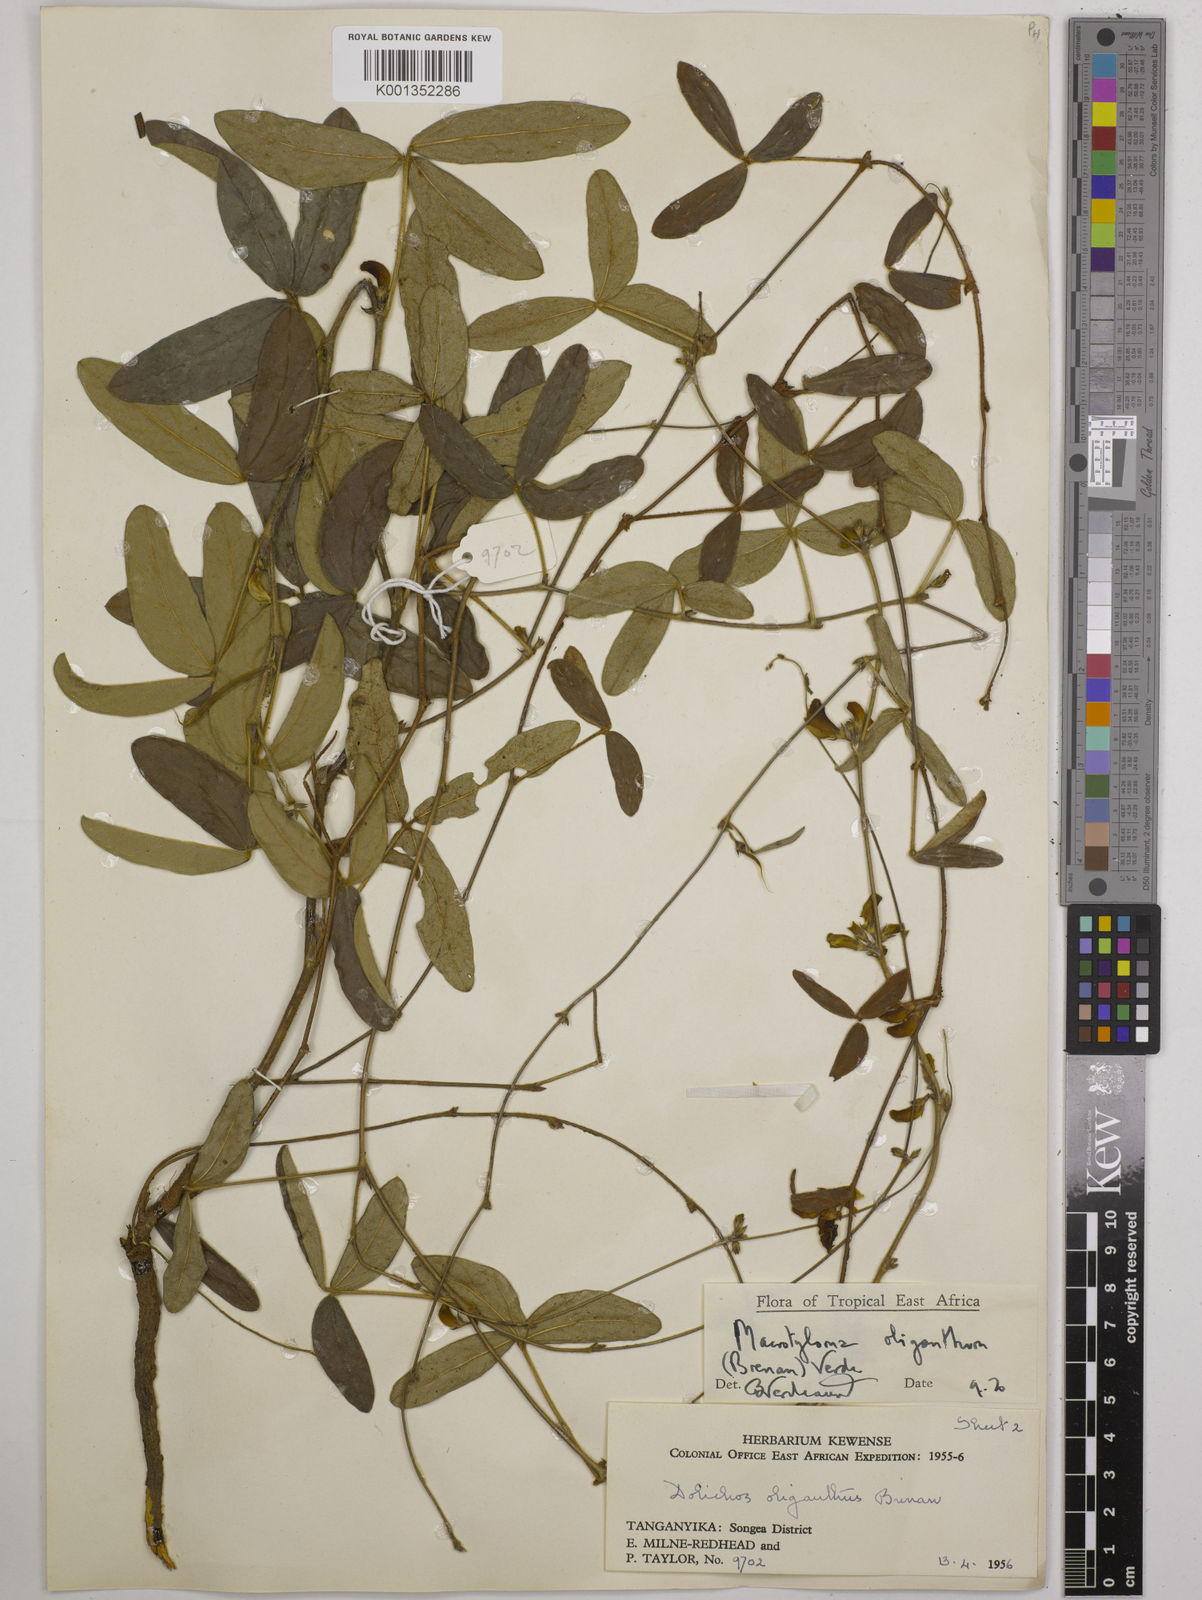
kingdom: Plantae
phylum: Tracheophyta
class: Magnoliopsida
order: Fabales
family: Fabaceae
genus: Macrotyloma
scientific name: Macrotyloma oliganthum
